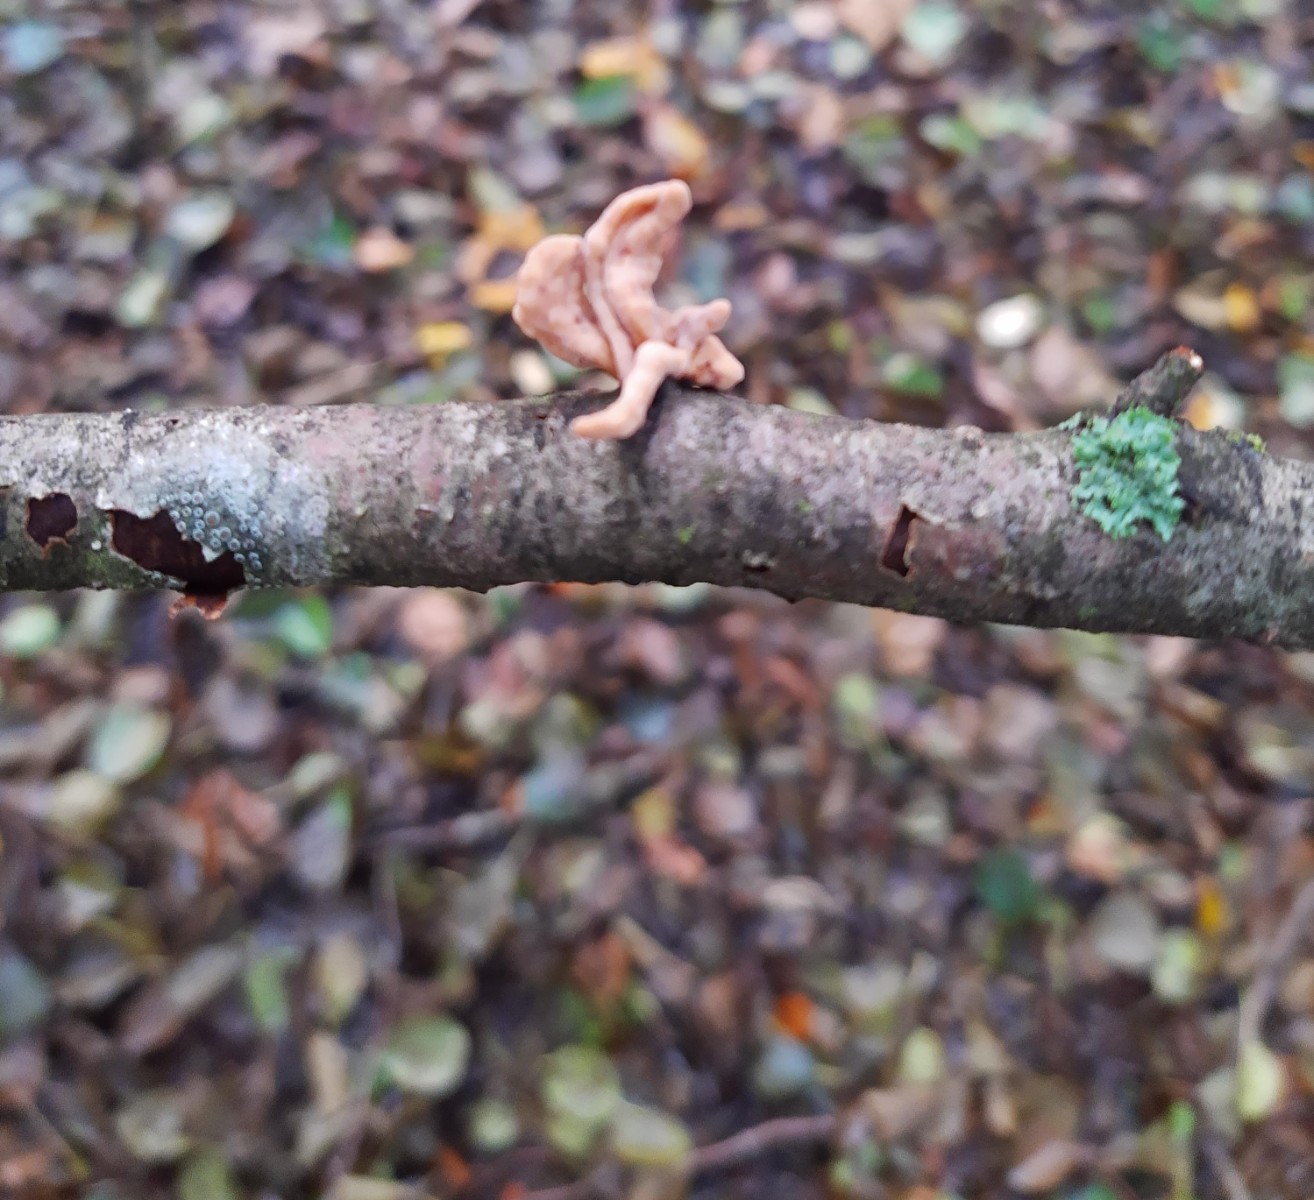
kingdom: Fungi
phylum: Basidiomycota
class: Agaricomycetes
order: Agaricales
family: Typhulaceae
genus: Typhula
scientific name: Typhula contorta
